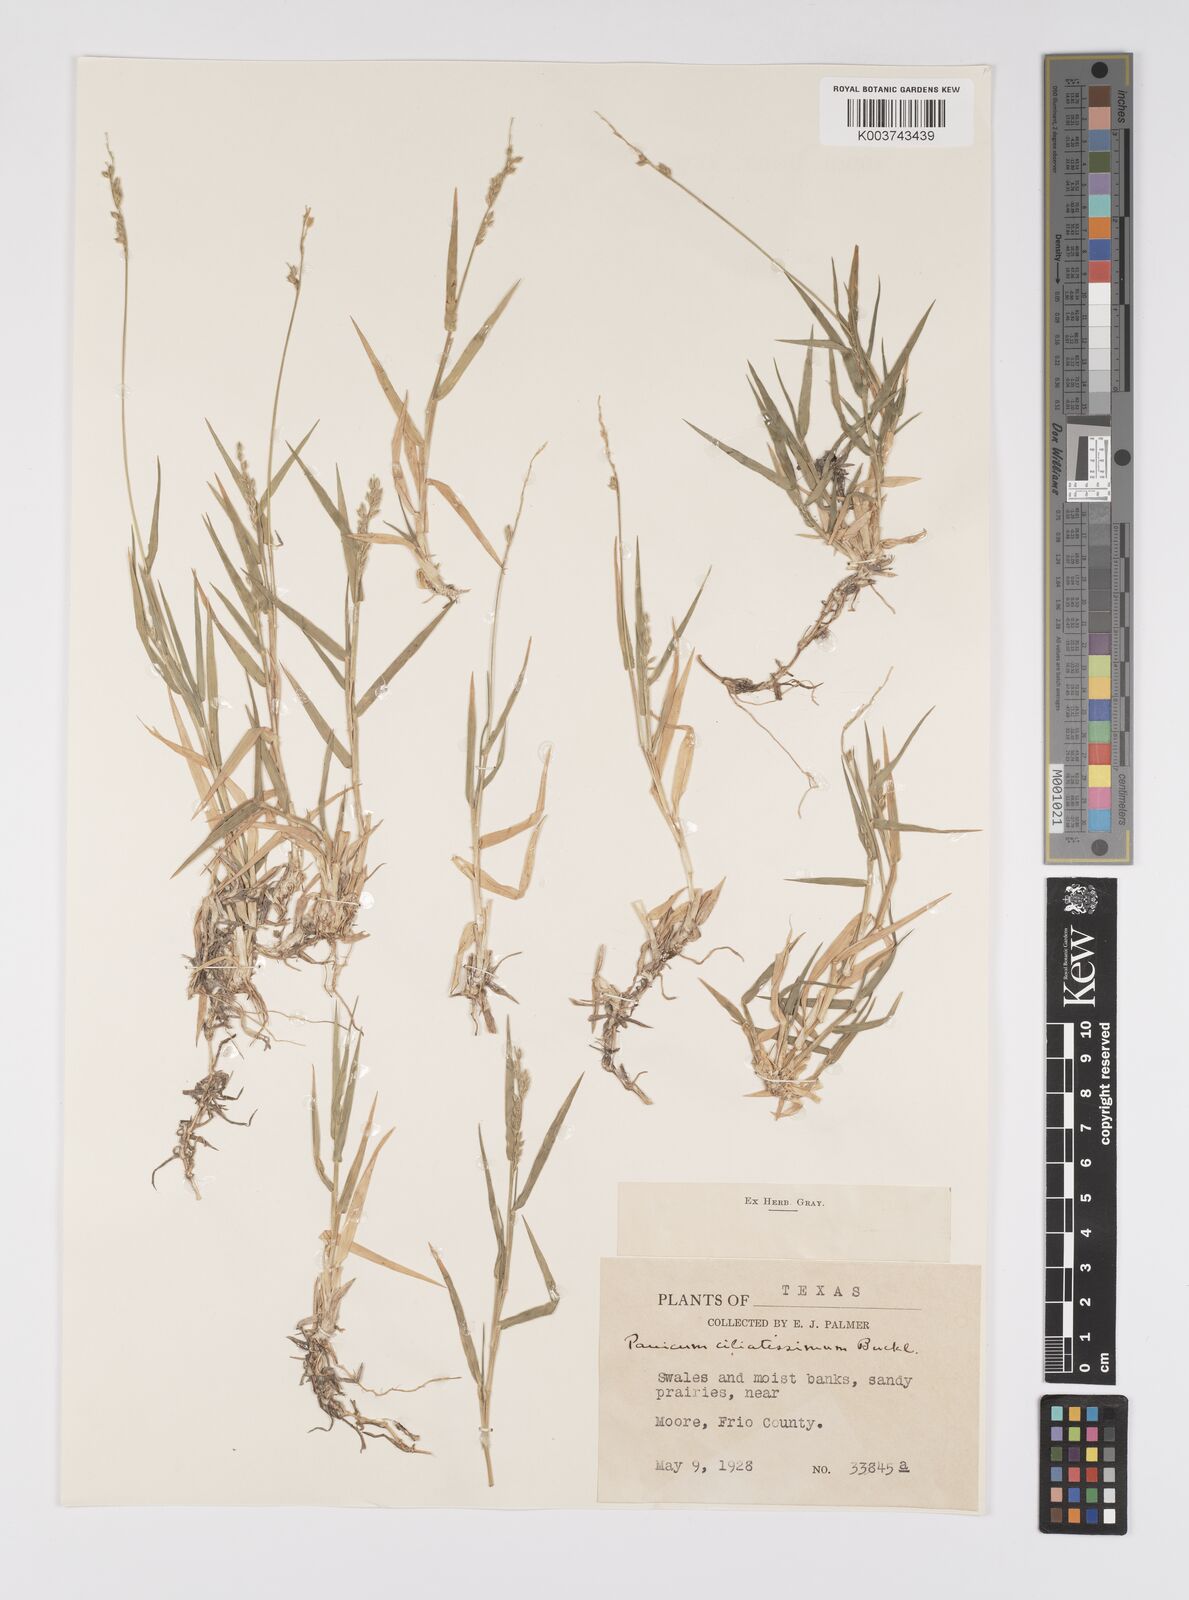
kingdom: Plantae
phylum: Tracheophyta
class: Liliopsida
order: Poales
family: Poaceae
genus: Urochloa
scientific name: Urochloa ciliatissima
